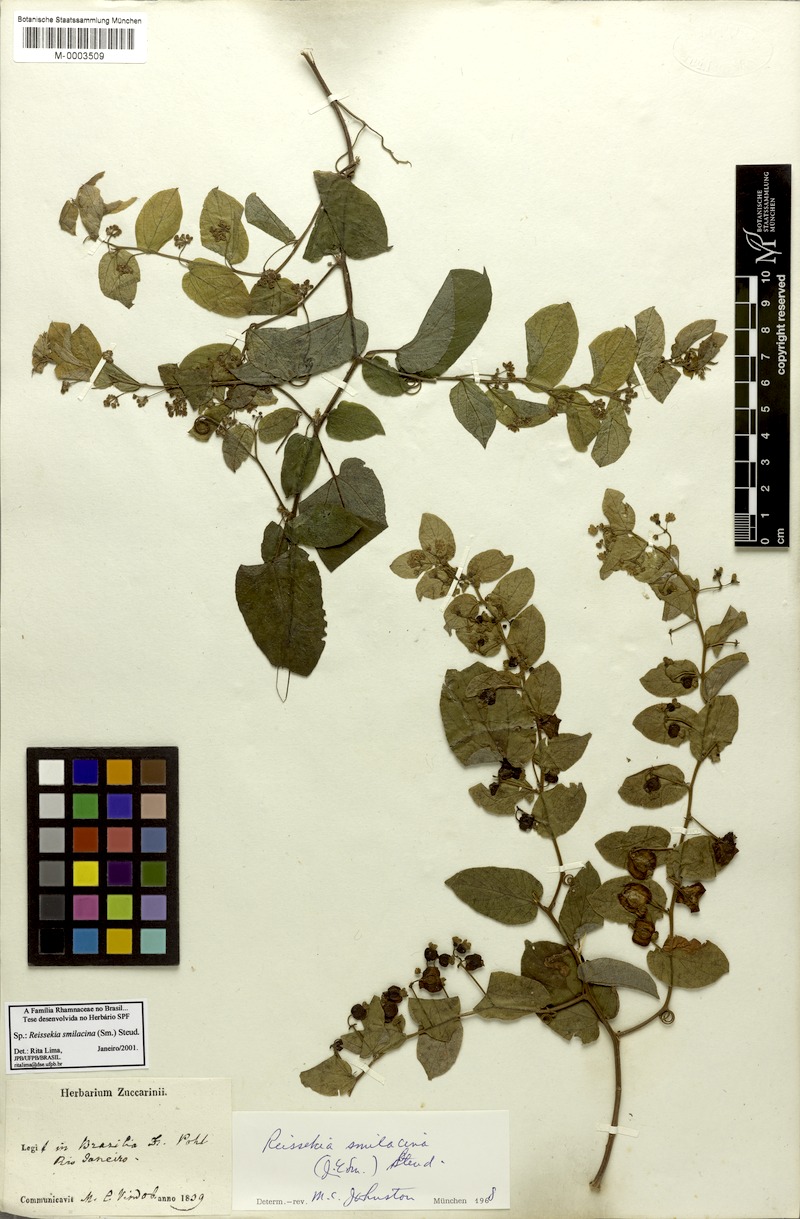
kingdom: Plantae
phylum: Tracheophyta
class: Magnoliopsida
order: Rosales
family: Rhamnaceae
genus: Reissekia
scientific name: Reissekia smilacina
